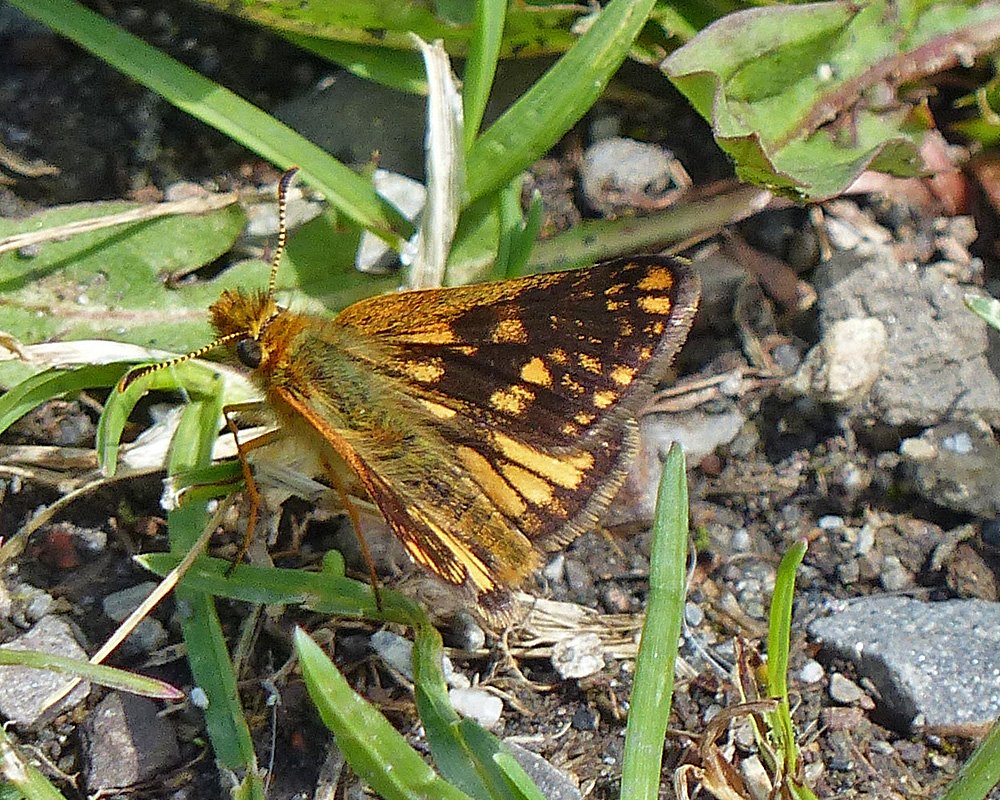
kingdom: Animalia
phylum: Arthropoda
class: Insecta
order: Lepidoptera
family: Hesperiidae
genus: Carterocephalus
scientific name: Carterocephalus palaemon
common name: Chequered Skipper
